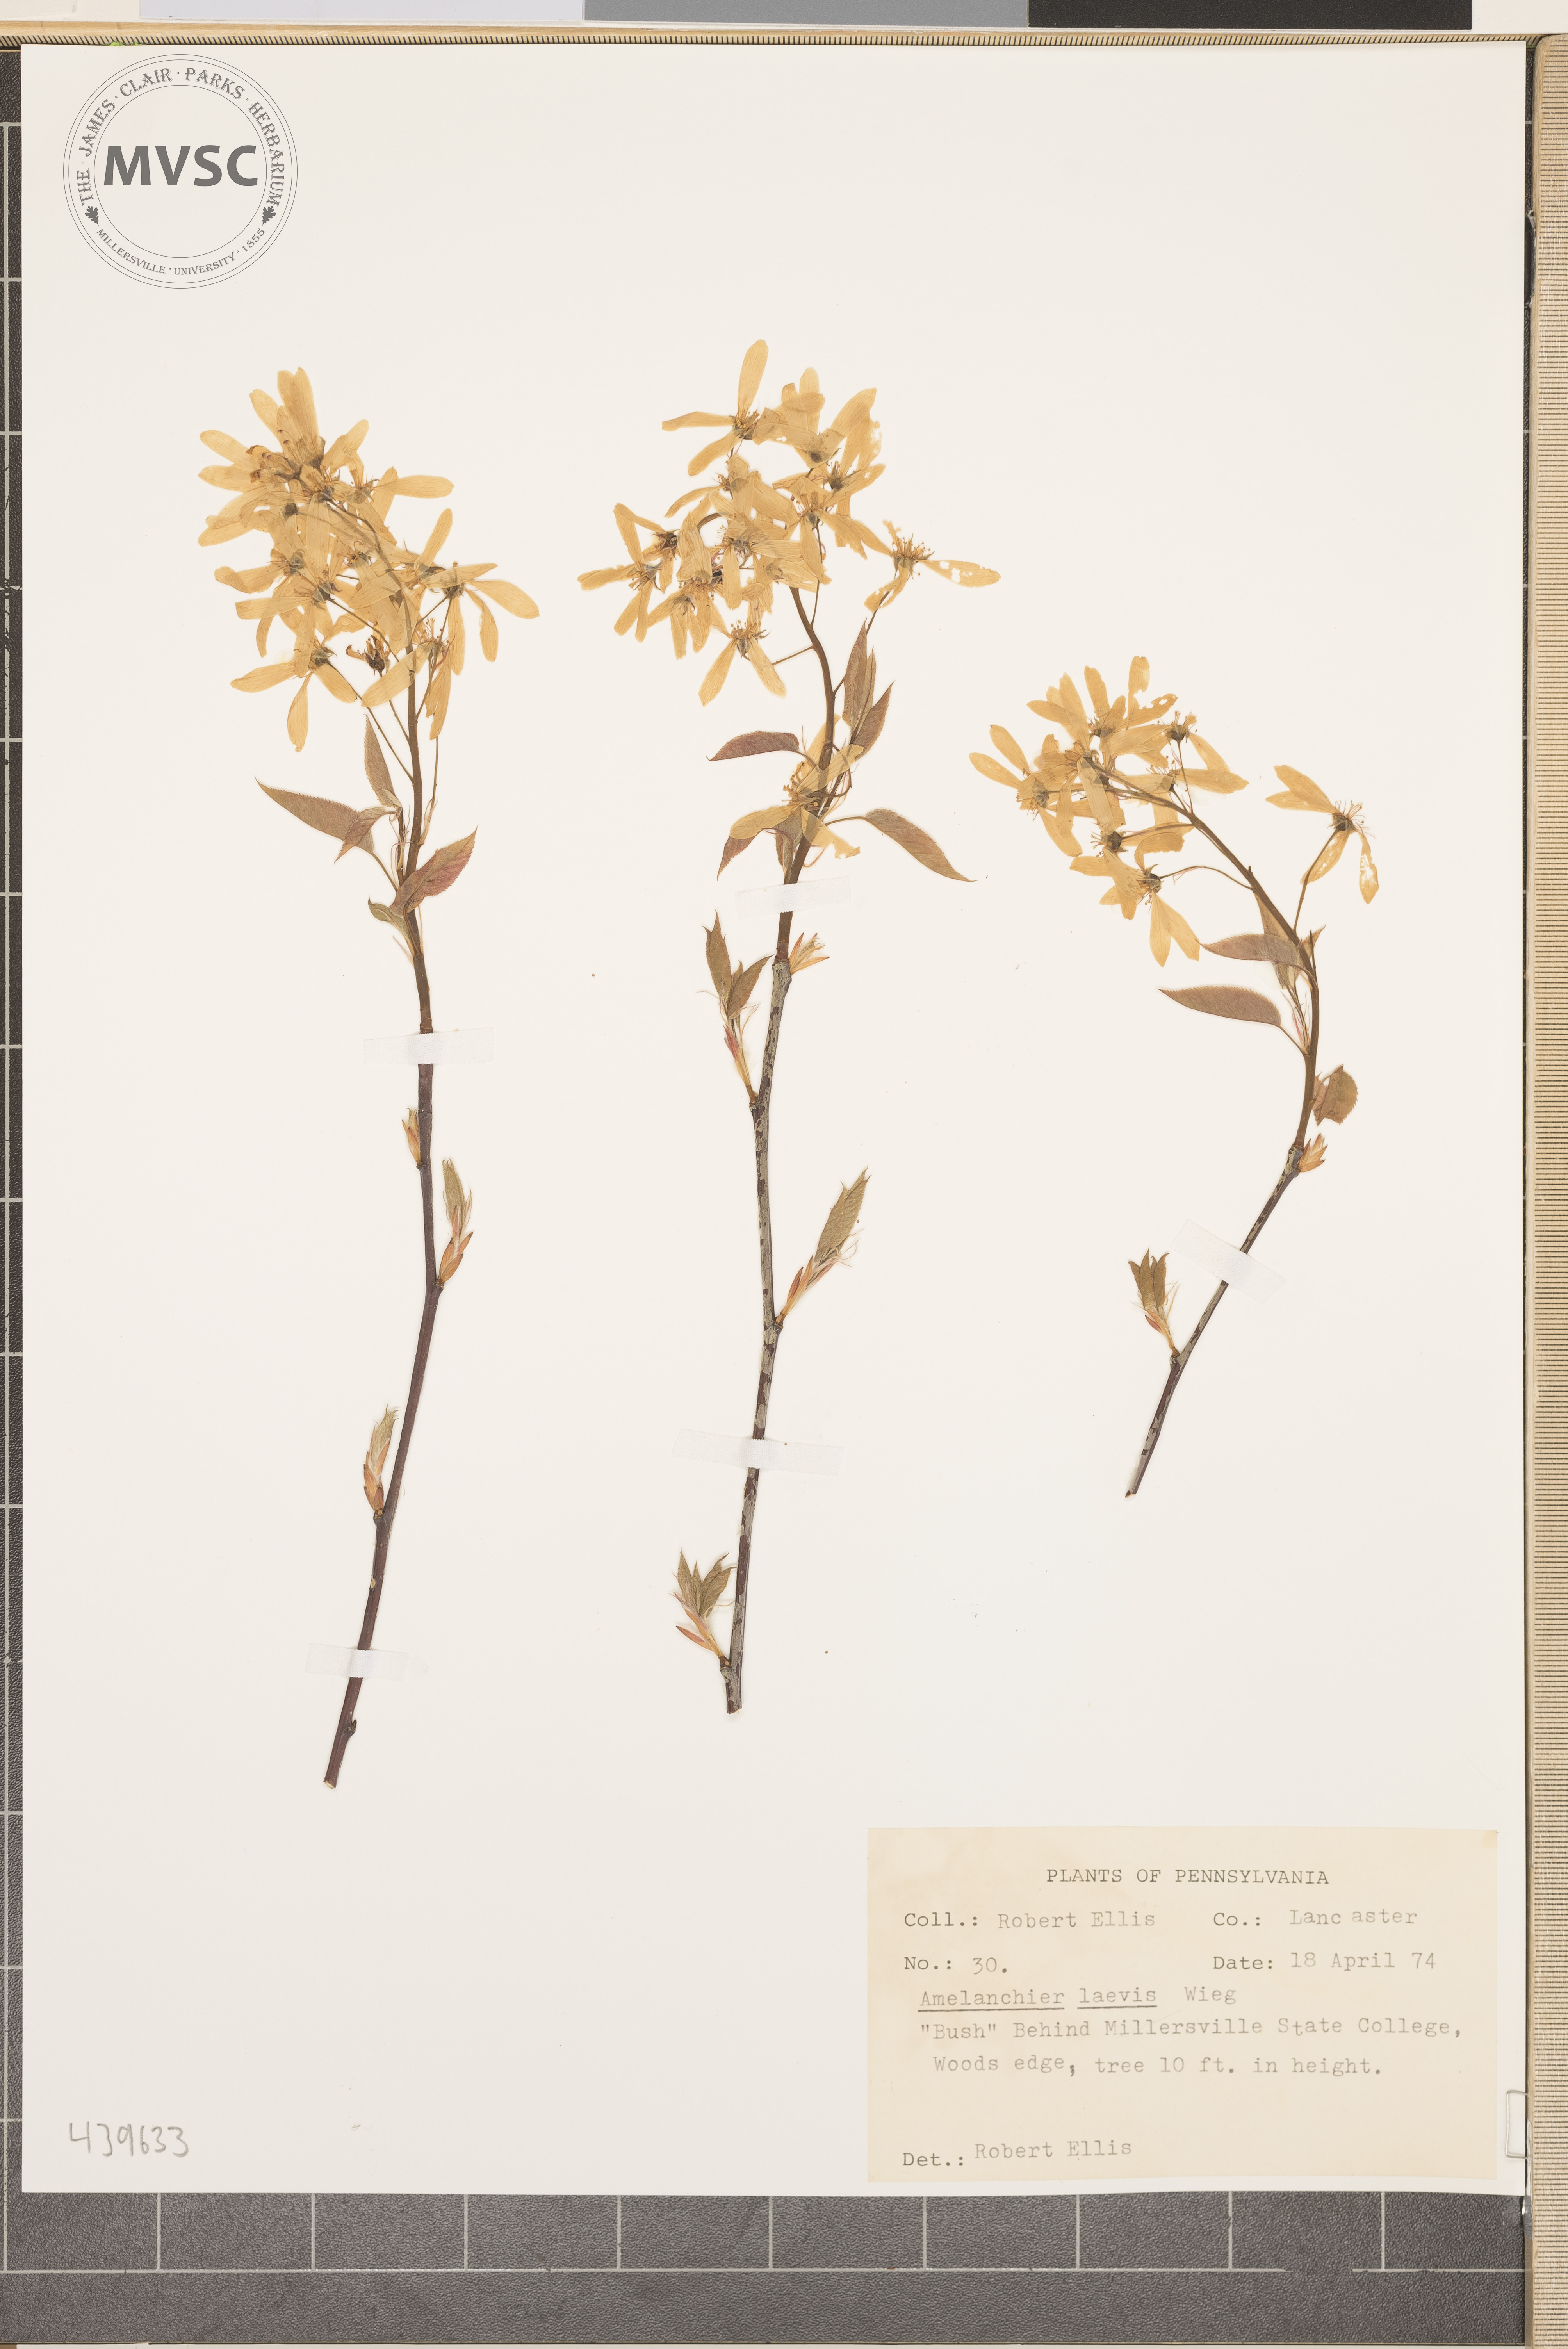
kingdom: Plantae
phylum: Tracheophyta
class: Magnoliopsida
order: Rosales
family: Rosaceae
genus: Amelanchier
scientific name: Amelanchier laevis
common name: Allegheny serviceberry
